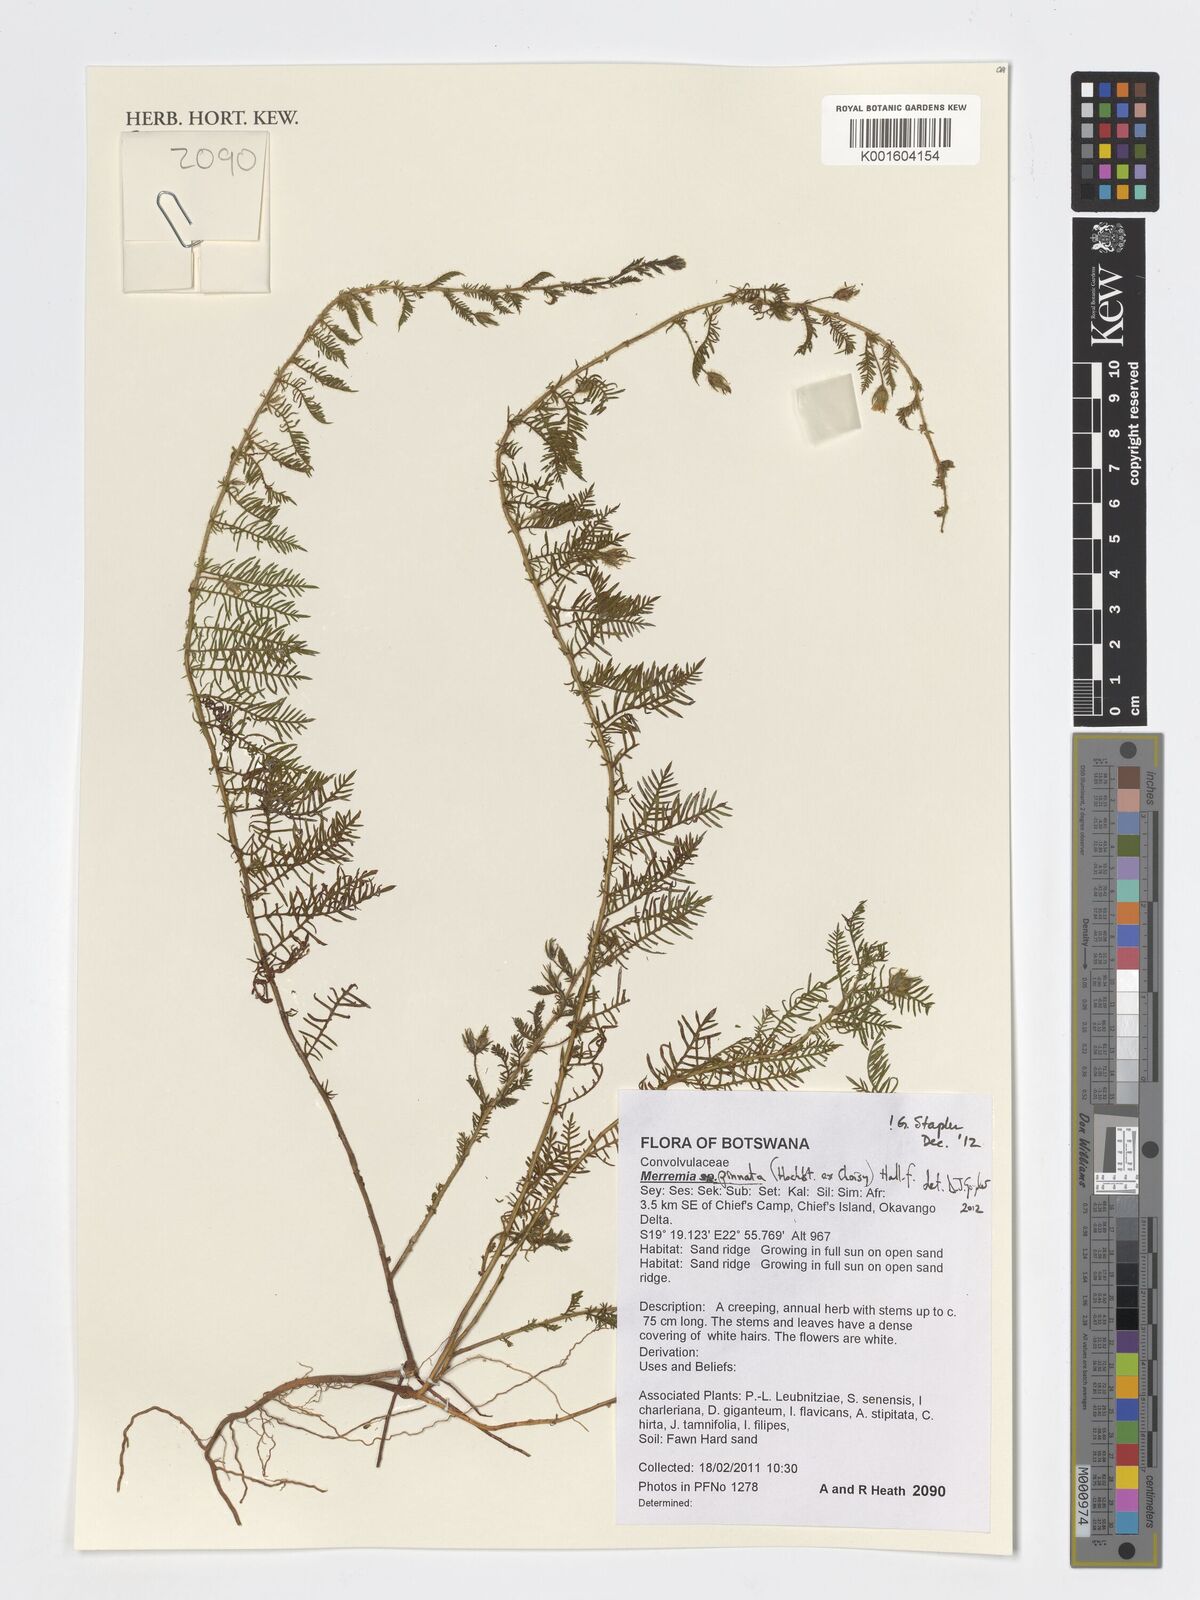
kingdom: Plantae
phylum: Tracheophyta
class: Magnoliopsida
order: Solanales
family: Convolvulaceae
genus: Xenostegia
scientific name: Xenostegia pinnata
